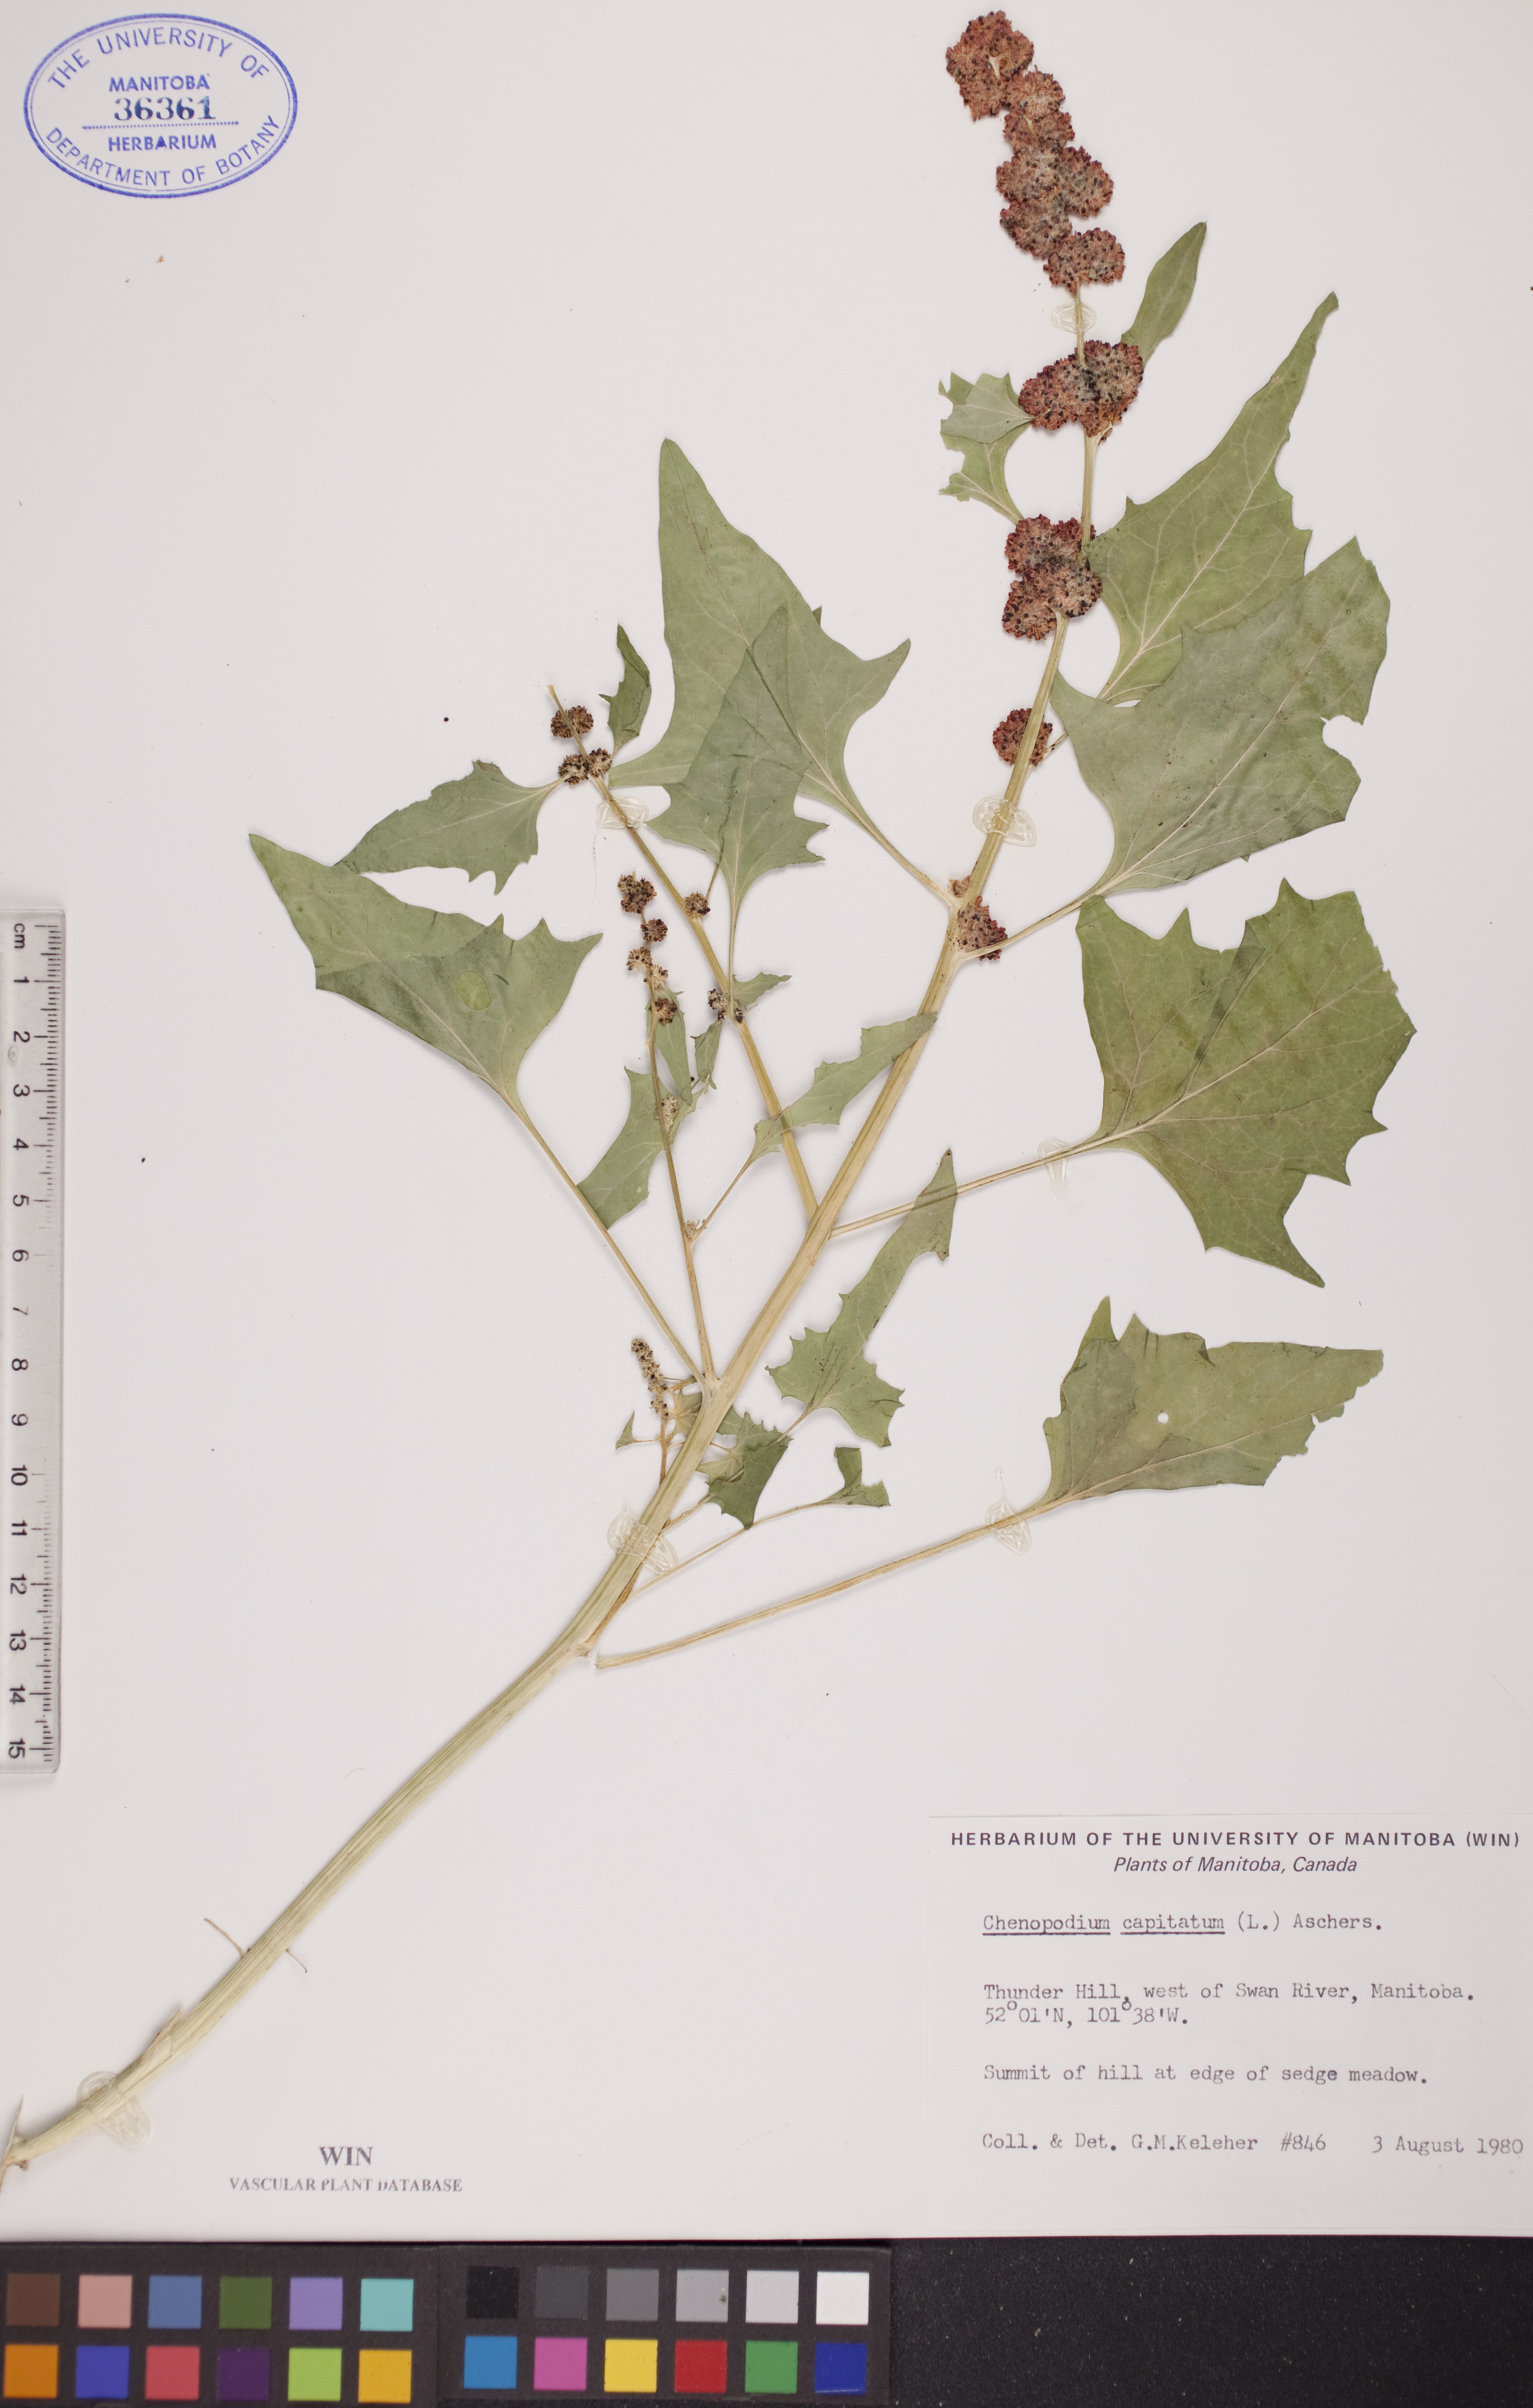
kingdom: Plantae
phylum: Tracheophyta
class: Magnoliopsida
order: Caryophyllales
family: Amaranthaceae
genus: Blitum
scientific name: Blitum capitatum
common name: Strawberry-blight
